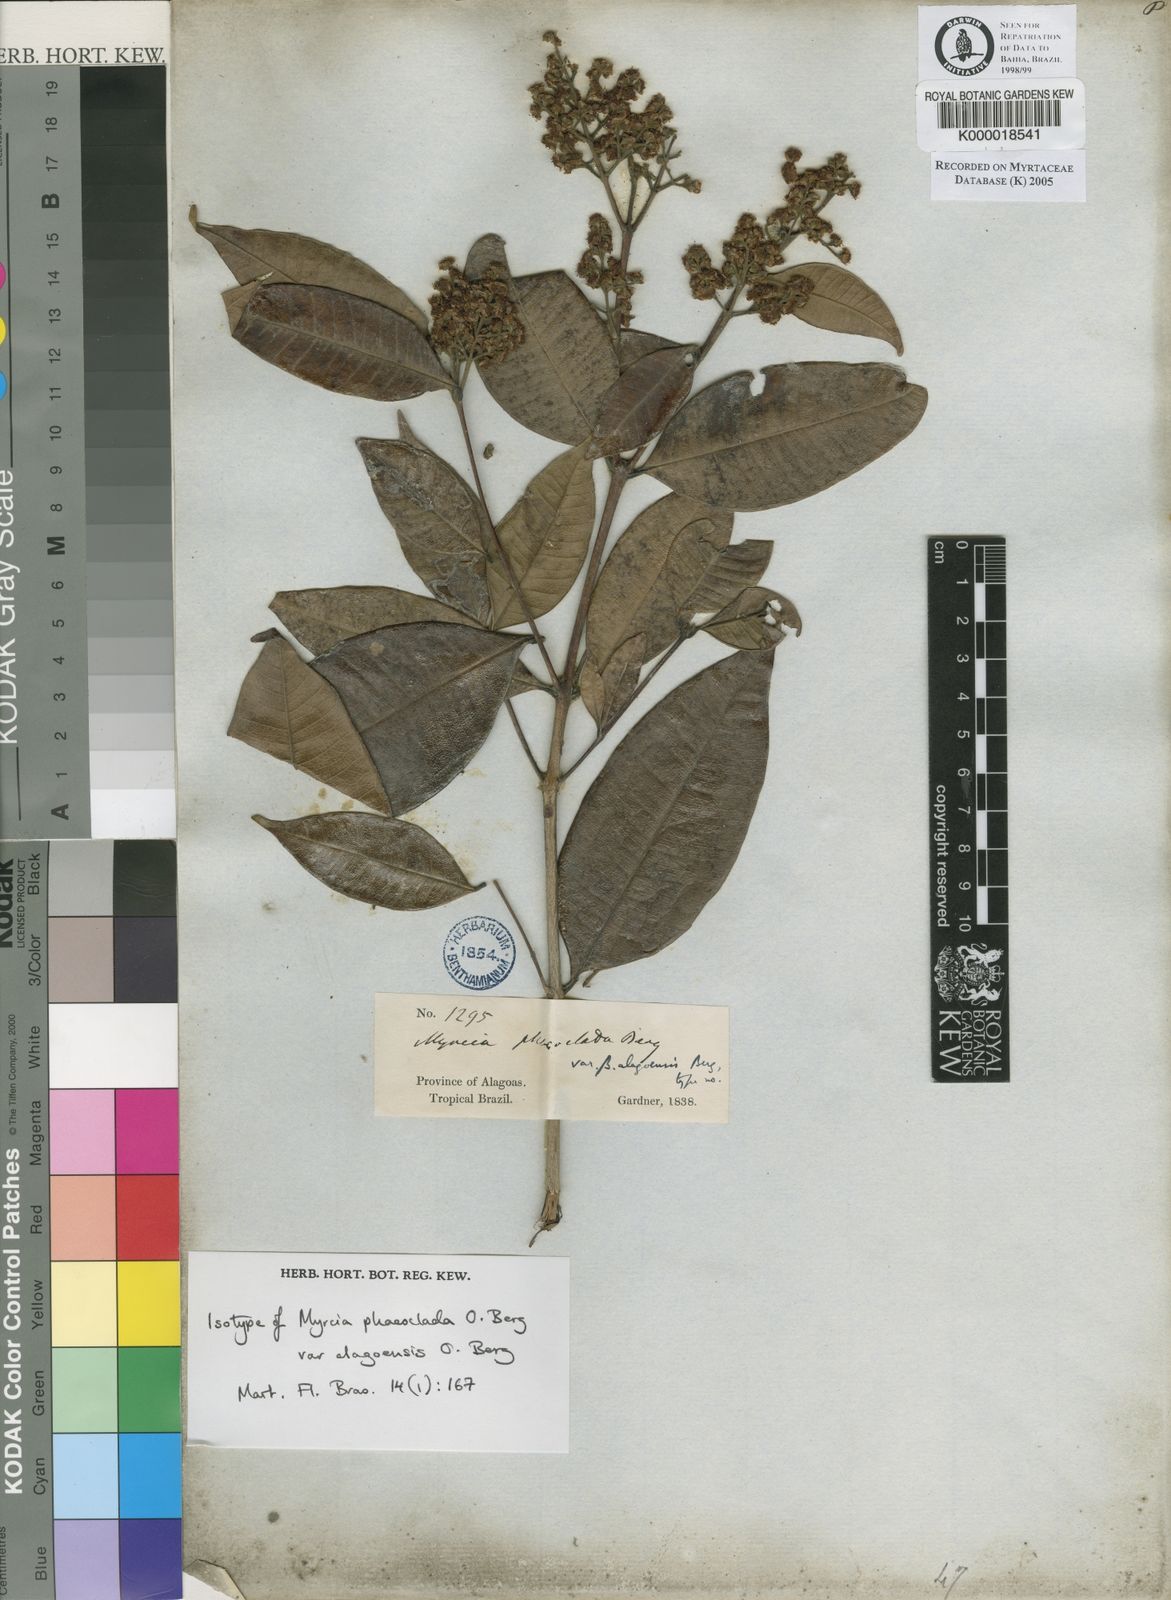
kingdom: Plantae
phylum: Tracheophyta
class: Magnoliopsida
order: Myrtales
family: Myrtaceae
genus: Myrcia
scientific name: Myrcia splendens
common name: Surinam cherry
